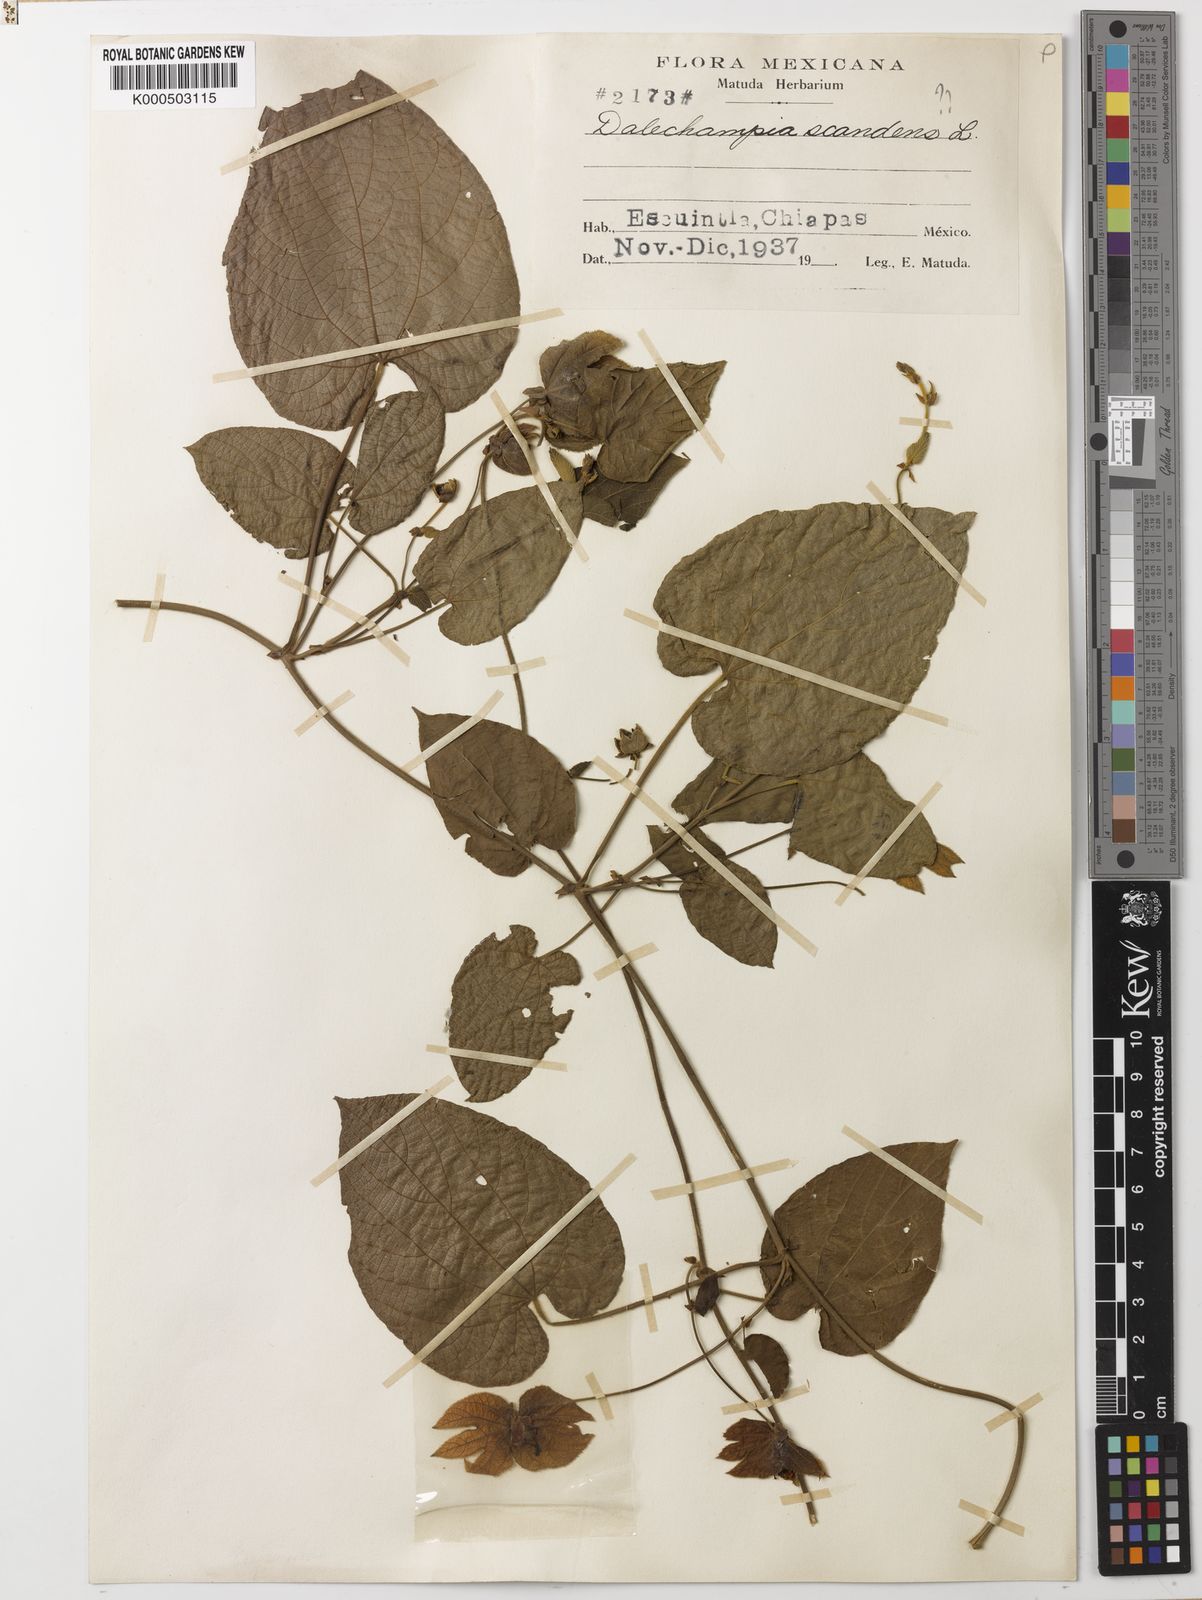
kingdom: Plantae
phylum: Tracheophyta
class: Magnoliopsida
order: Malpighiales
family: Euphorbiaceae
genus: Dalechampia
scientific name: Dalechampia scandens
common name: Spurgecreeper
